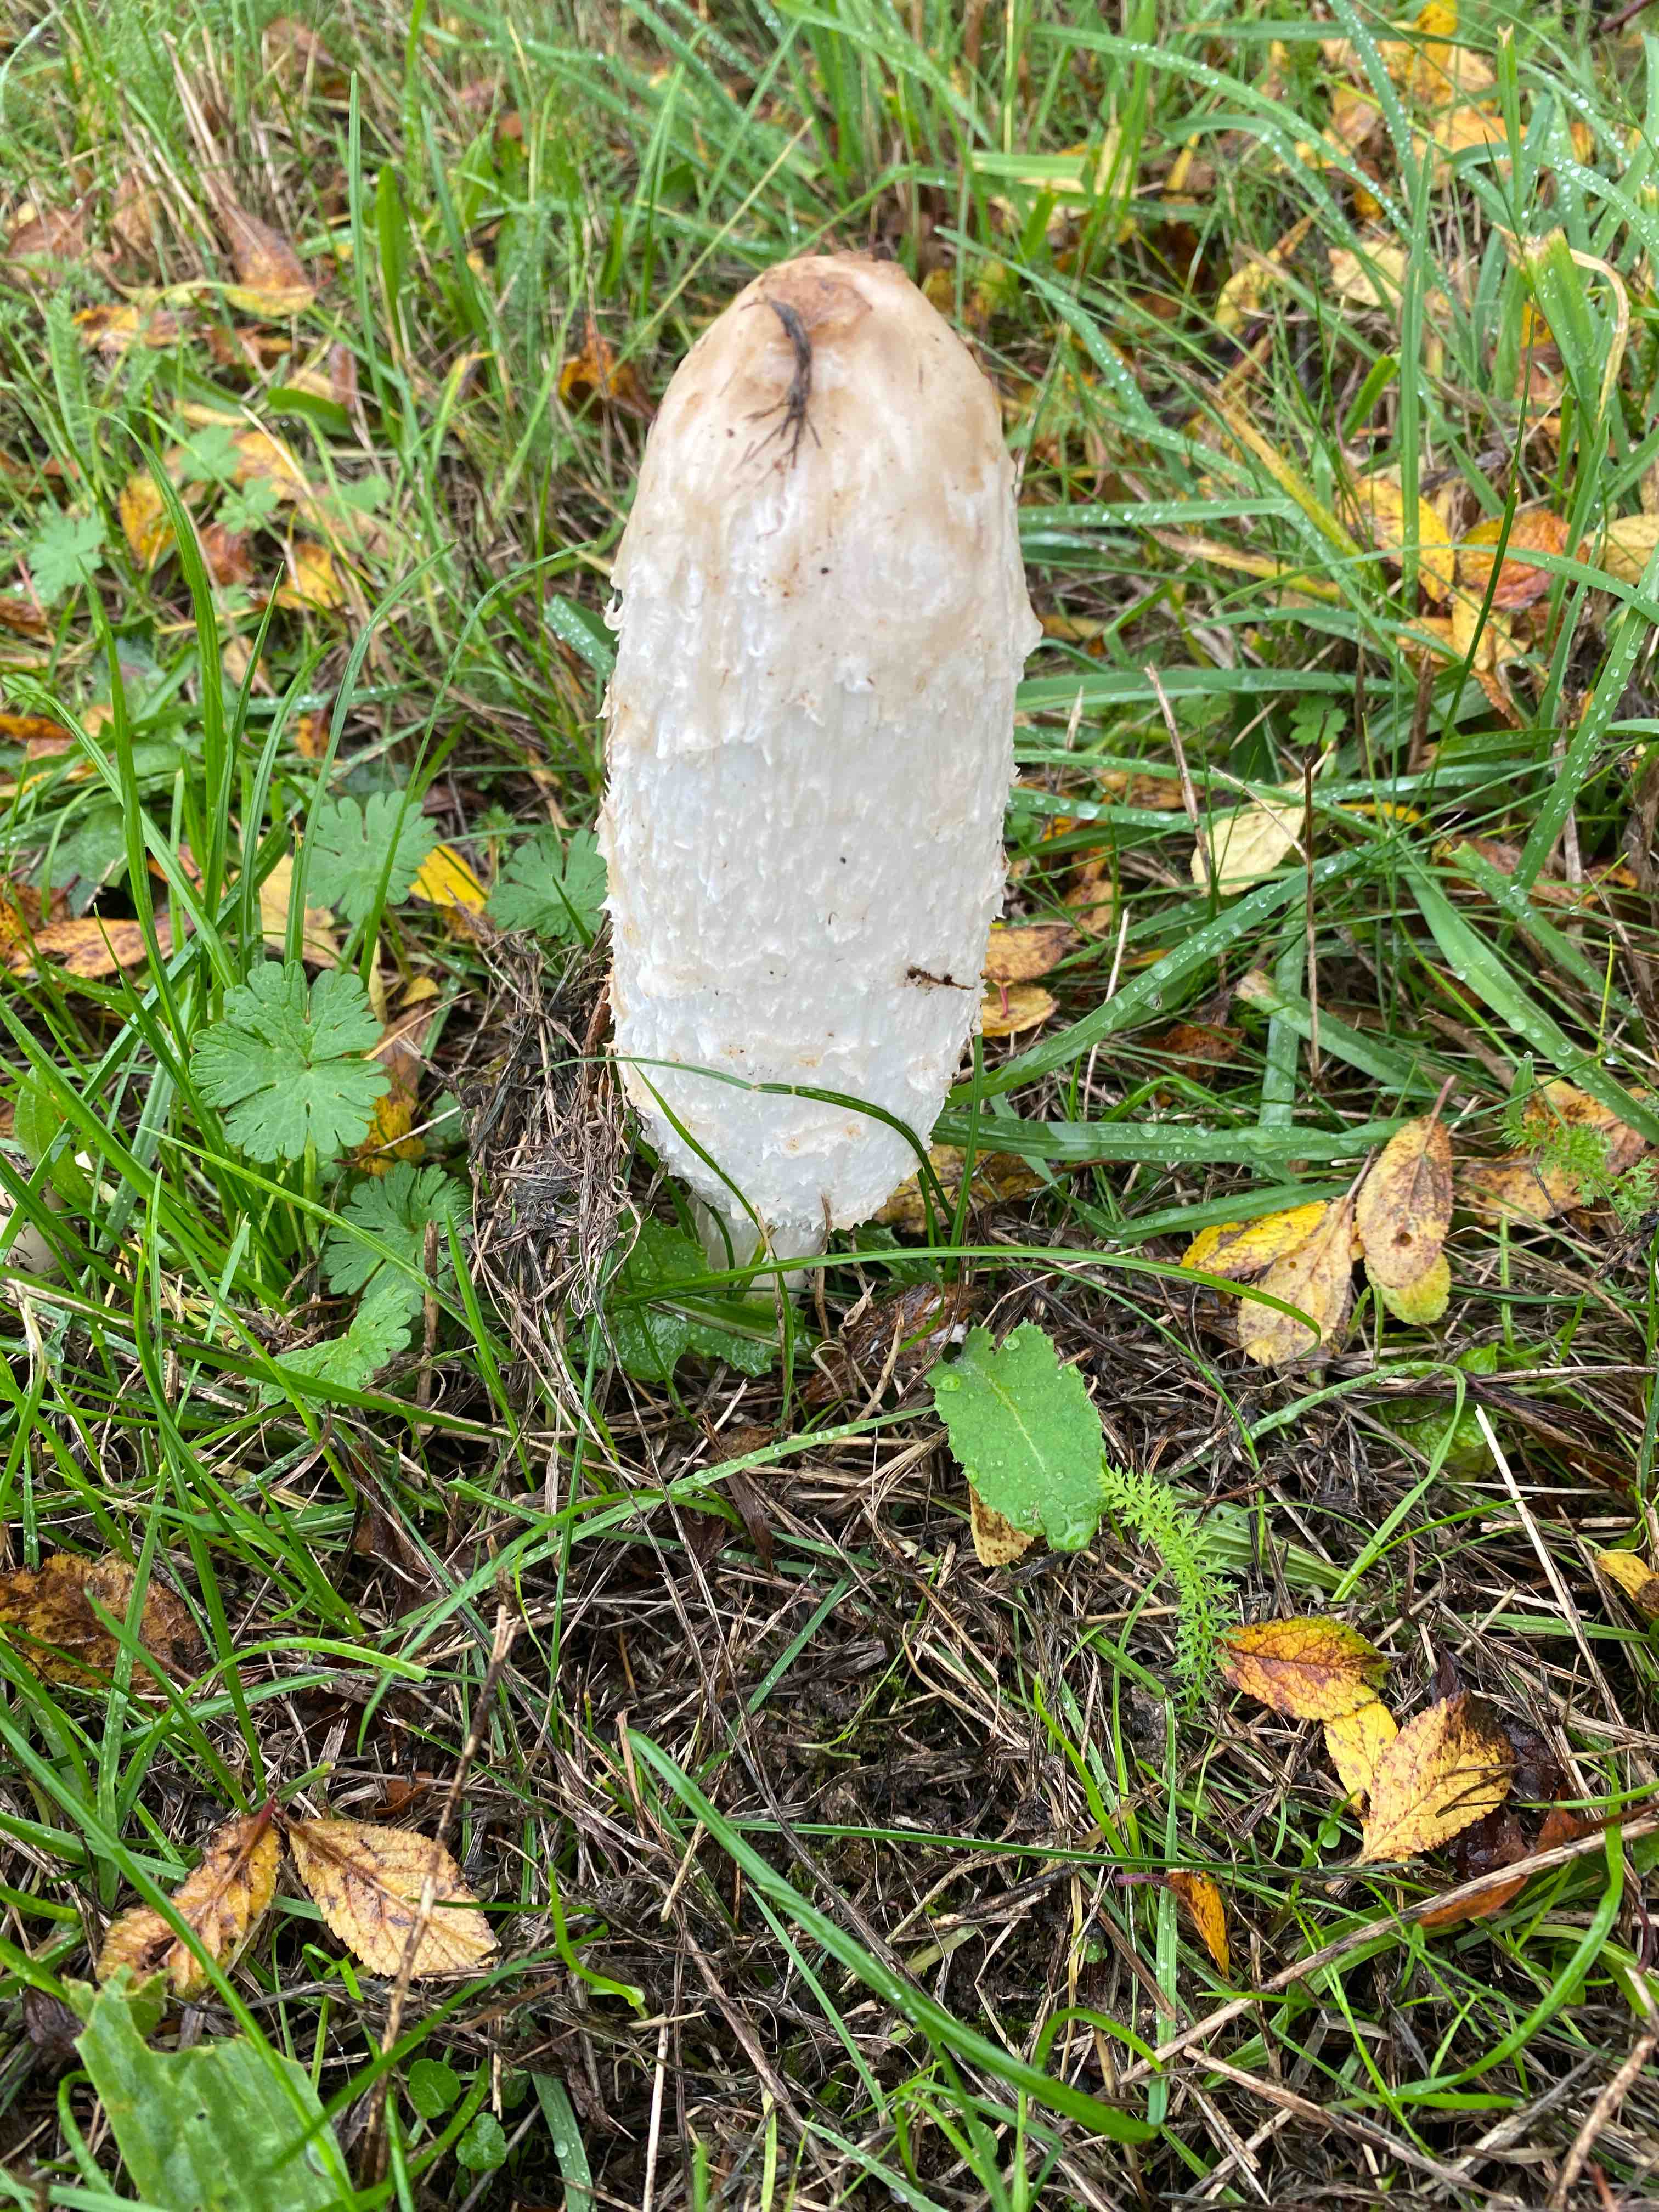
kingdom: Fungi
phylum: Basidiomycota
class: Agaricomycetes
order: Agaricales
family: Agaricaceae
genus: Coprinus
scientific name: Coprinus comatus
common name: stor parykhat
